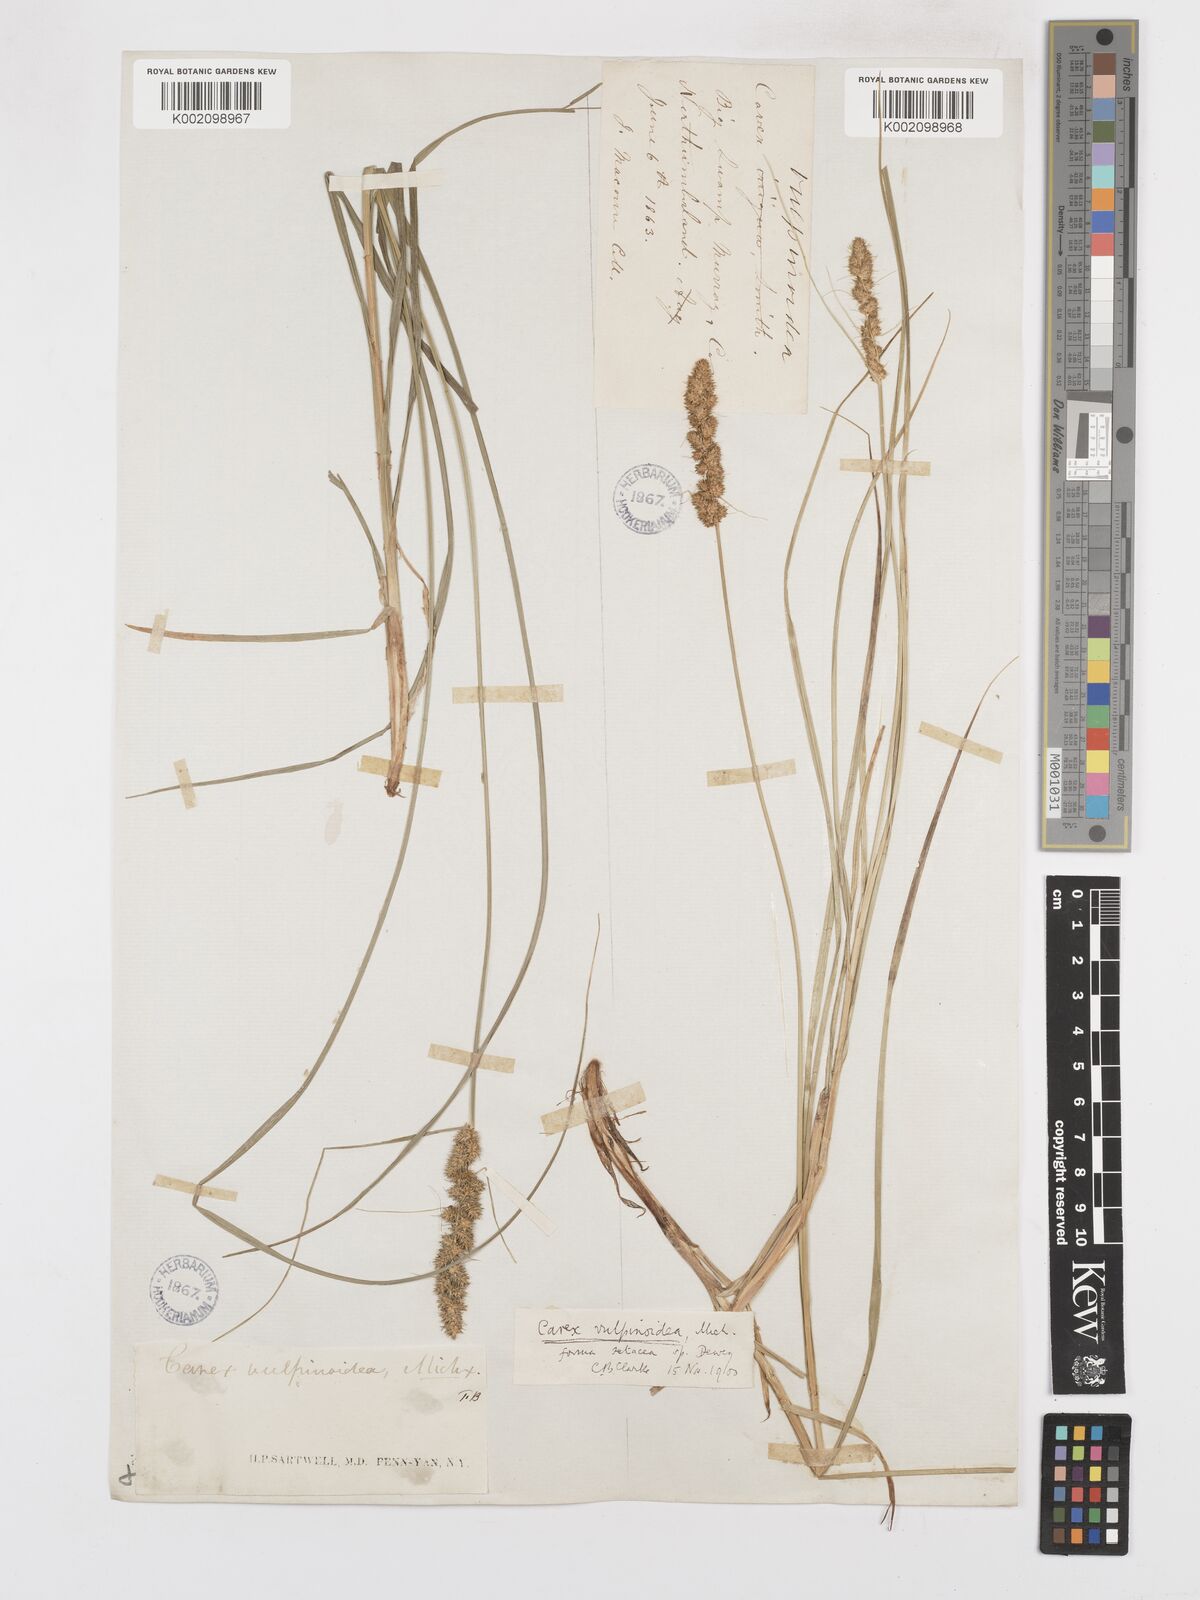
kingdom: Plantae
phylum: Tracheophyta
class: Liliopsida
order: Poales
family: Cyperaceae
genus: Carex
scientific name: Carex vulpinoidea
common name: American fox-sedge
